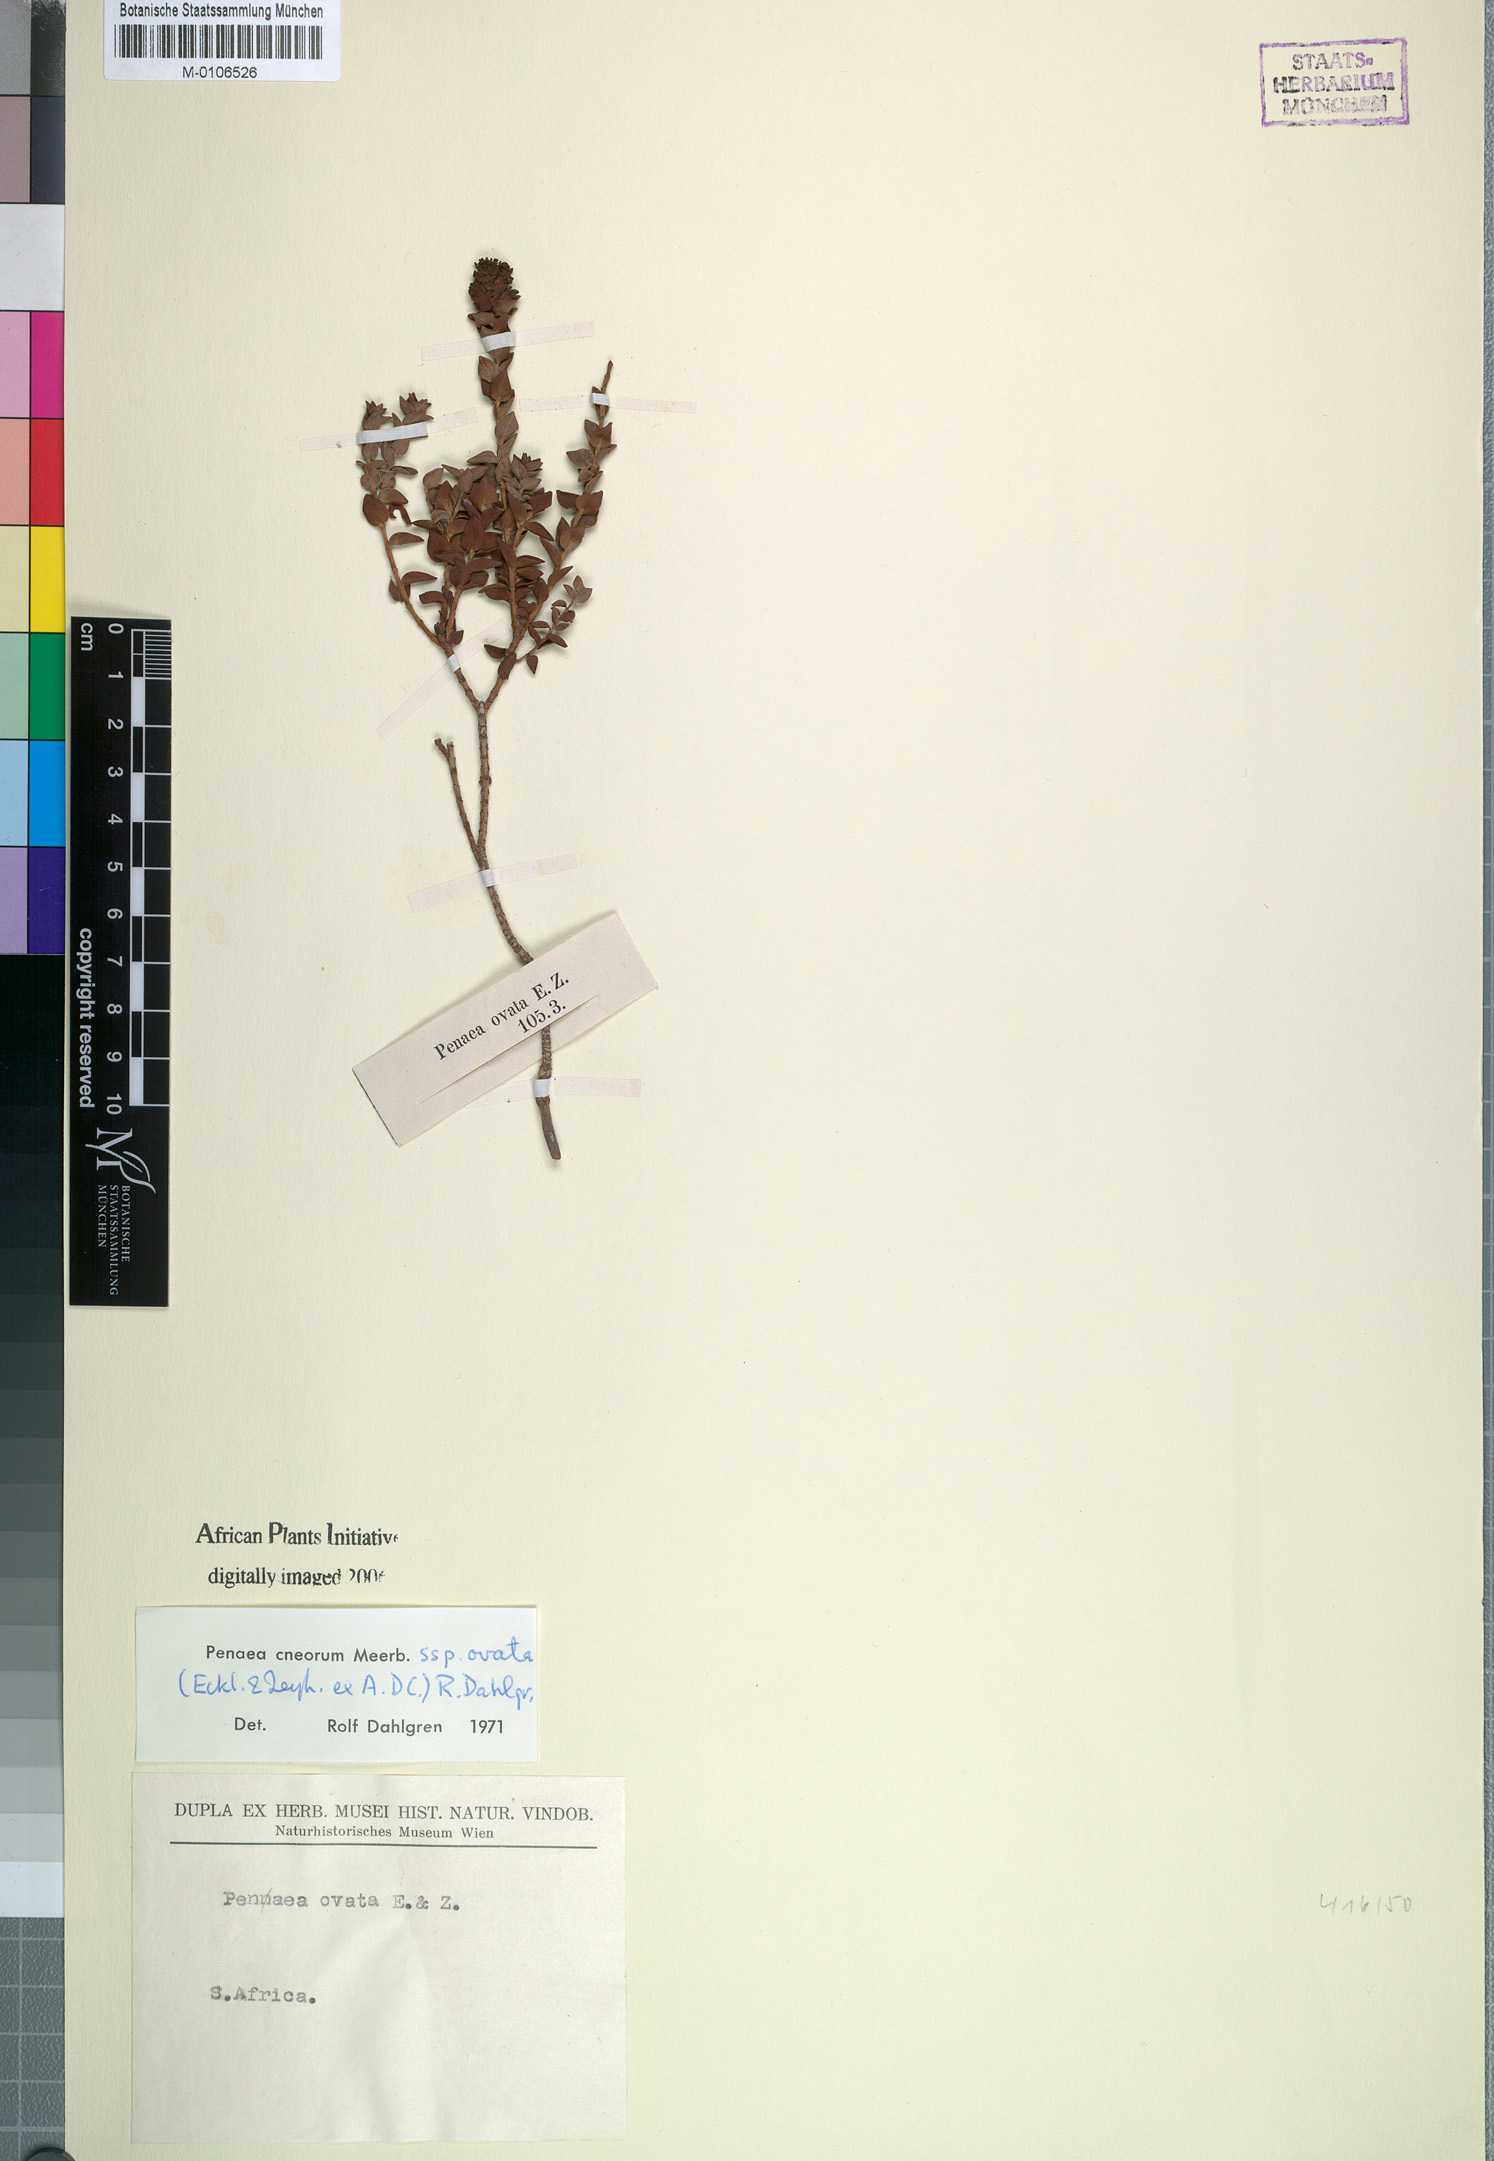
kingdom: Plantae
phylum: Tracheophyta
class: Magnoliopsida
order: Myrtales
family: Penaeaceae
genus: Penaea
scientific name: Penaea cneorum
